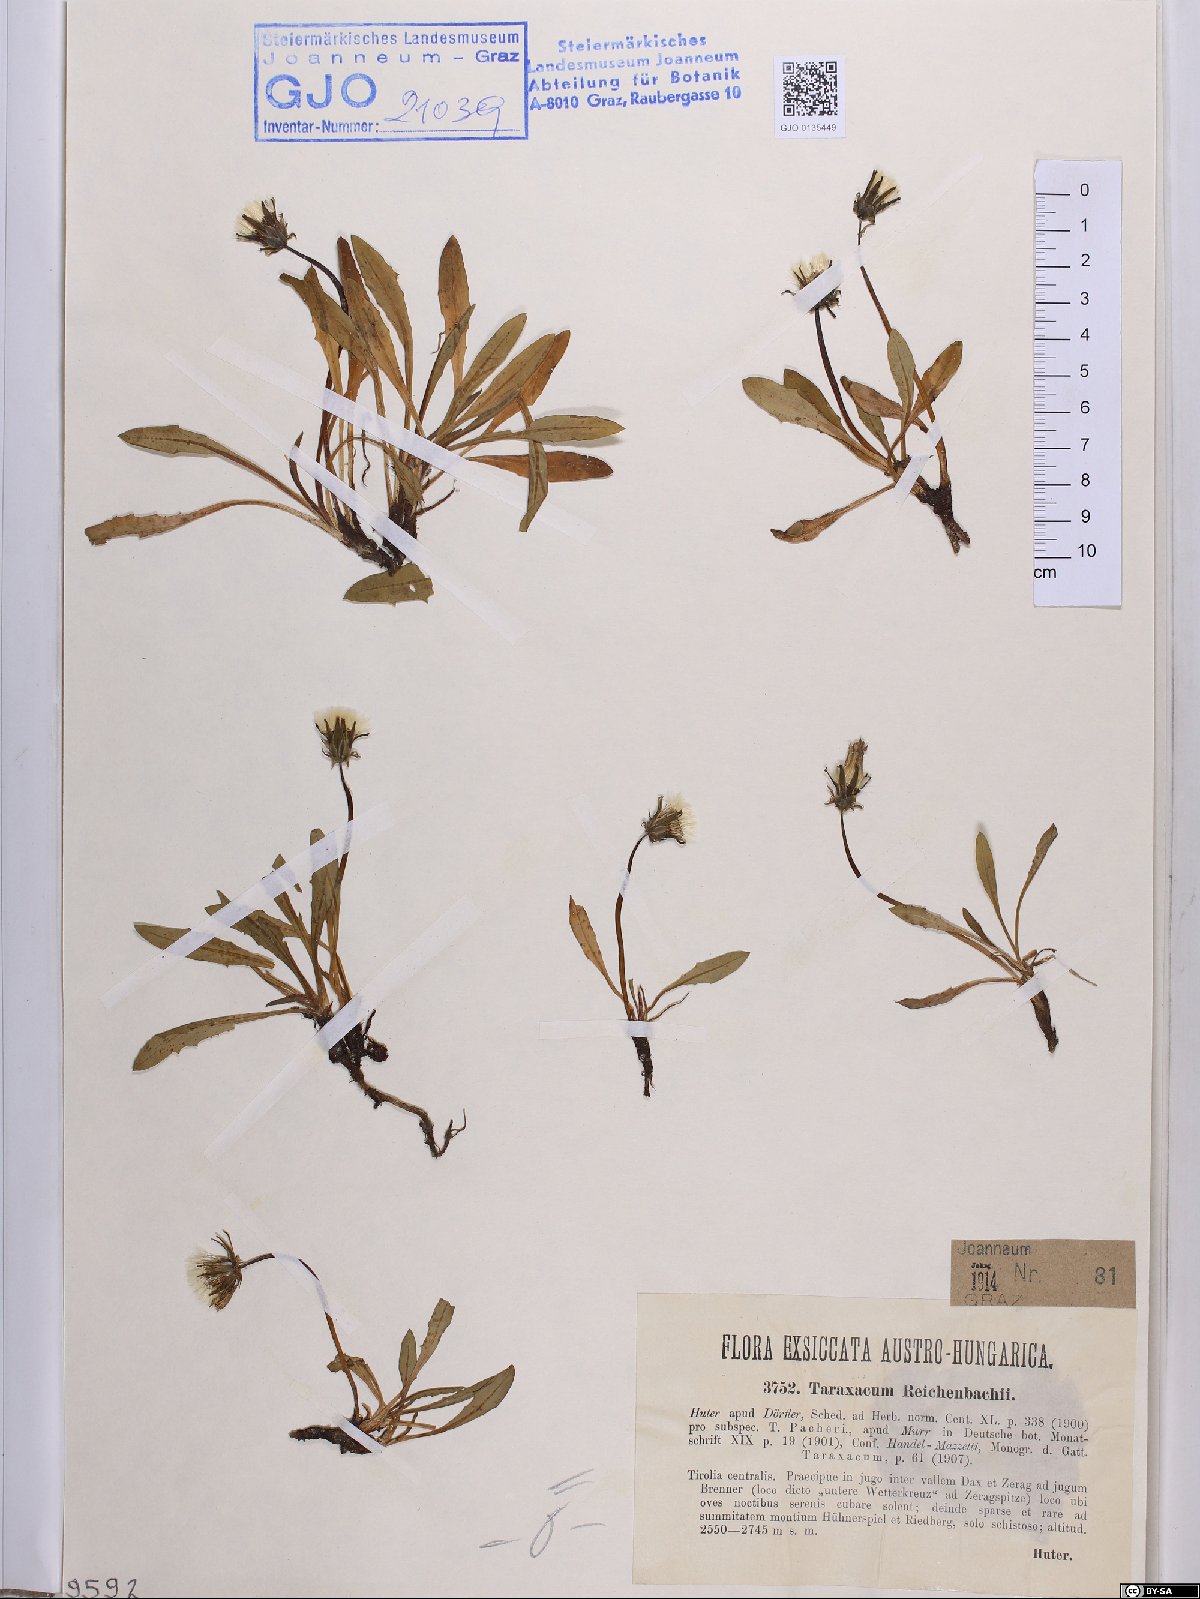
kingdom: Plantae
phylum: Tracheophyta
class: Magnoliopsida
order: Asterales
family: Asteraceae
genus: Taraxacum
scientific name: Taraxacum reichenbachii
